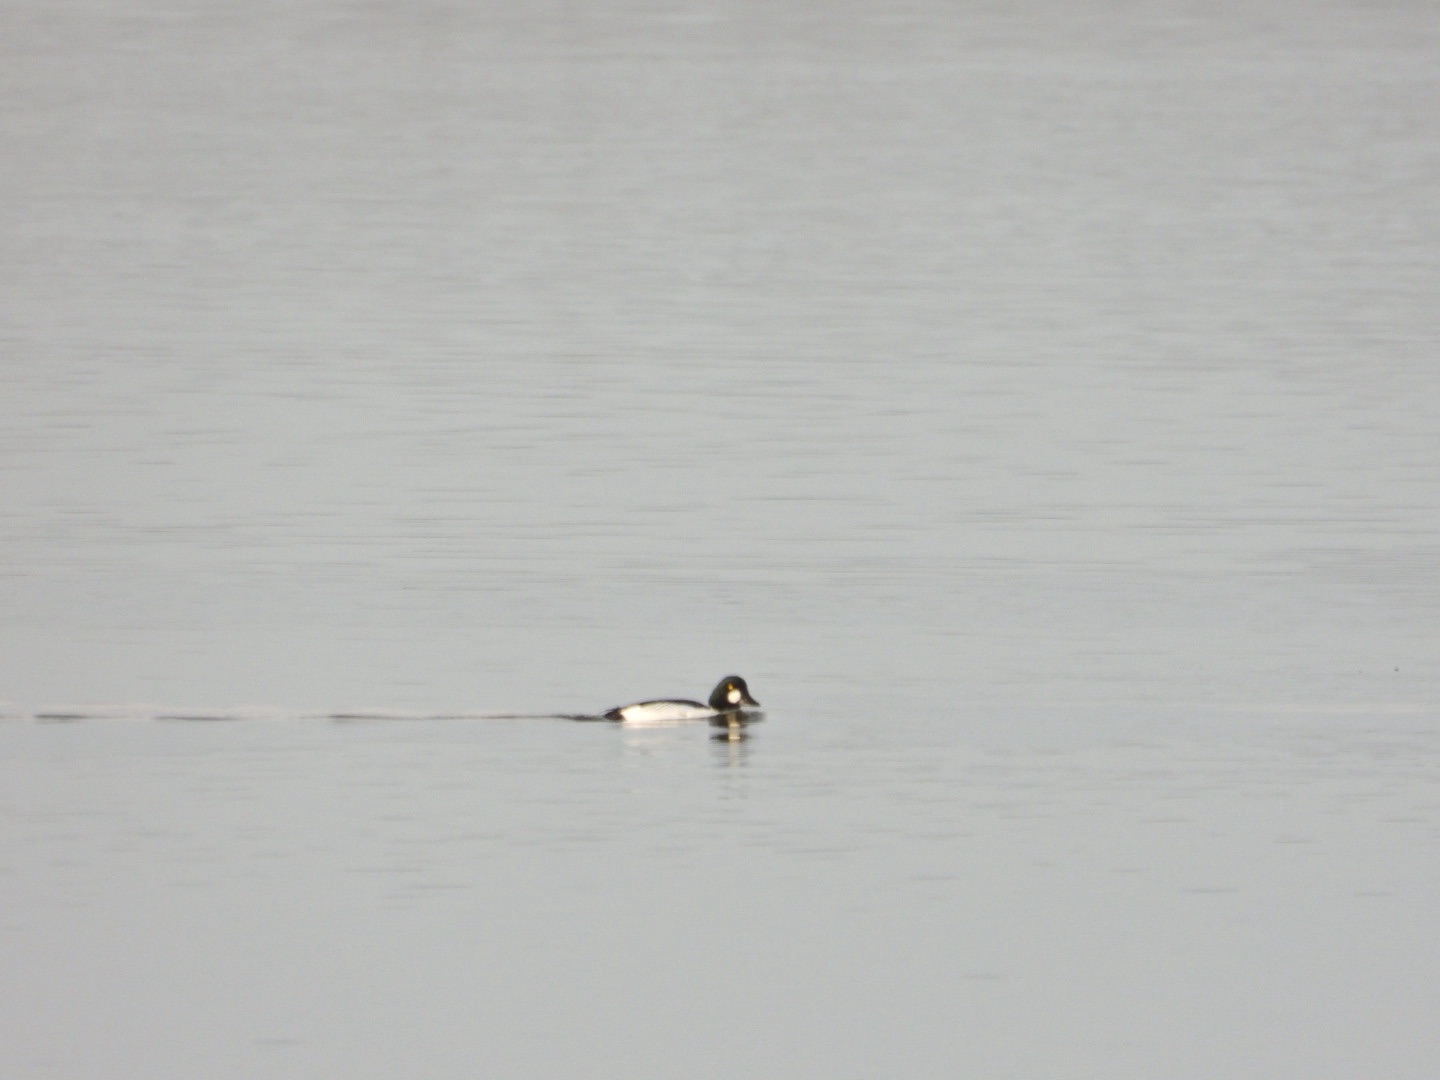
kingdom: Animalia
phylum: Chordata
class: Aves
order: Anseriformes
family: Anatidae
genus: Bucephala
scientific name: Bucephala clangula
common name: Hvinand
